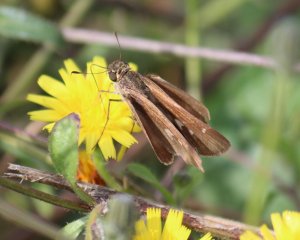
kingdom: Animalia
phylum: Arthropoda
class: Insecta
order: Lepidoptera
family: Hesperiidae
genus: Panoquina
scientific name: Panoquina ocola
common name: Ocola Skipper
